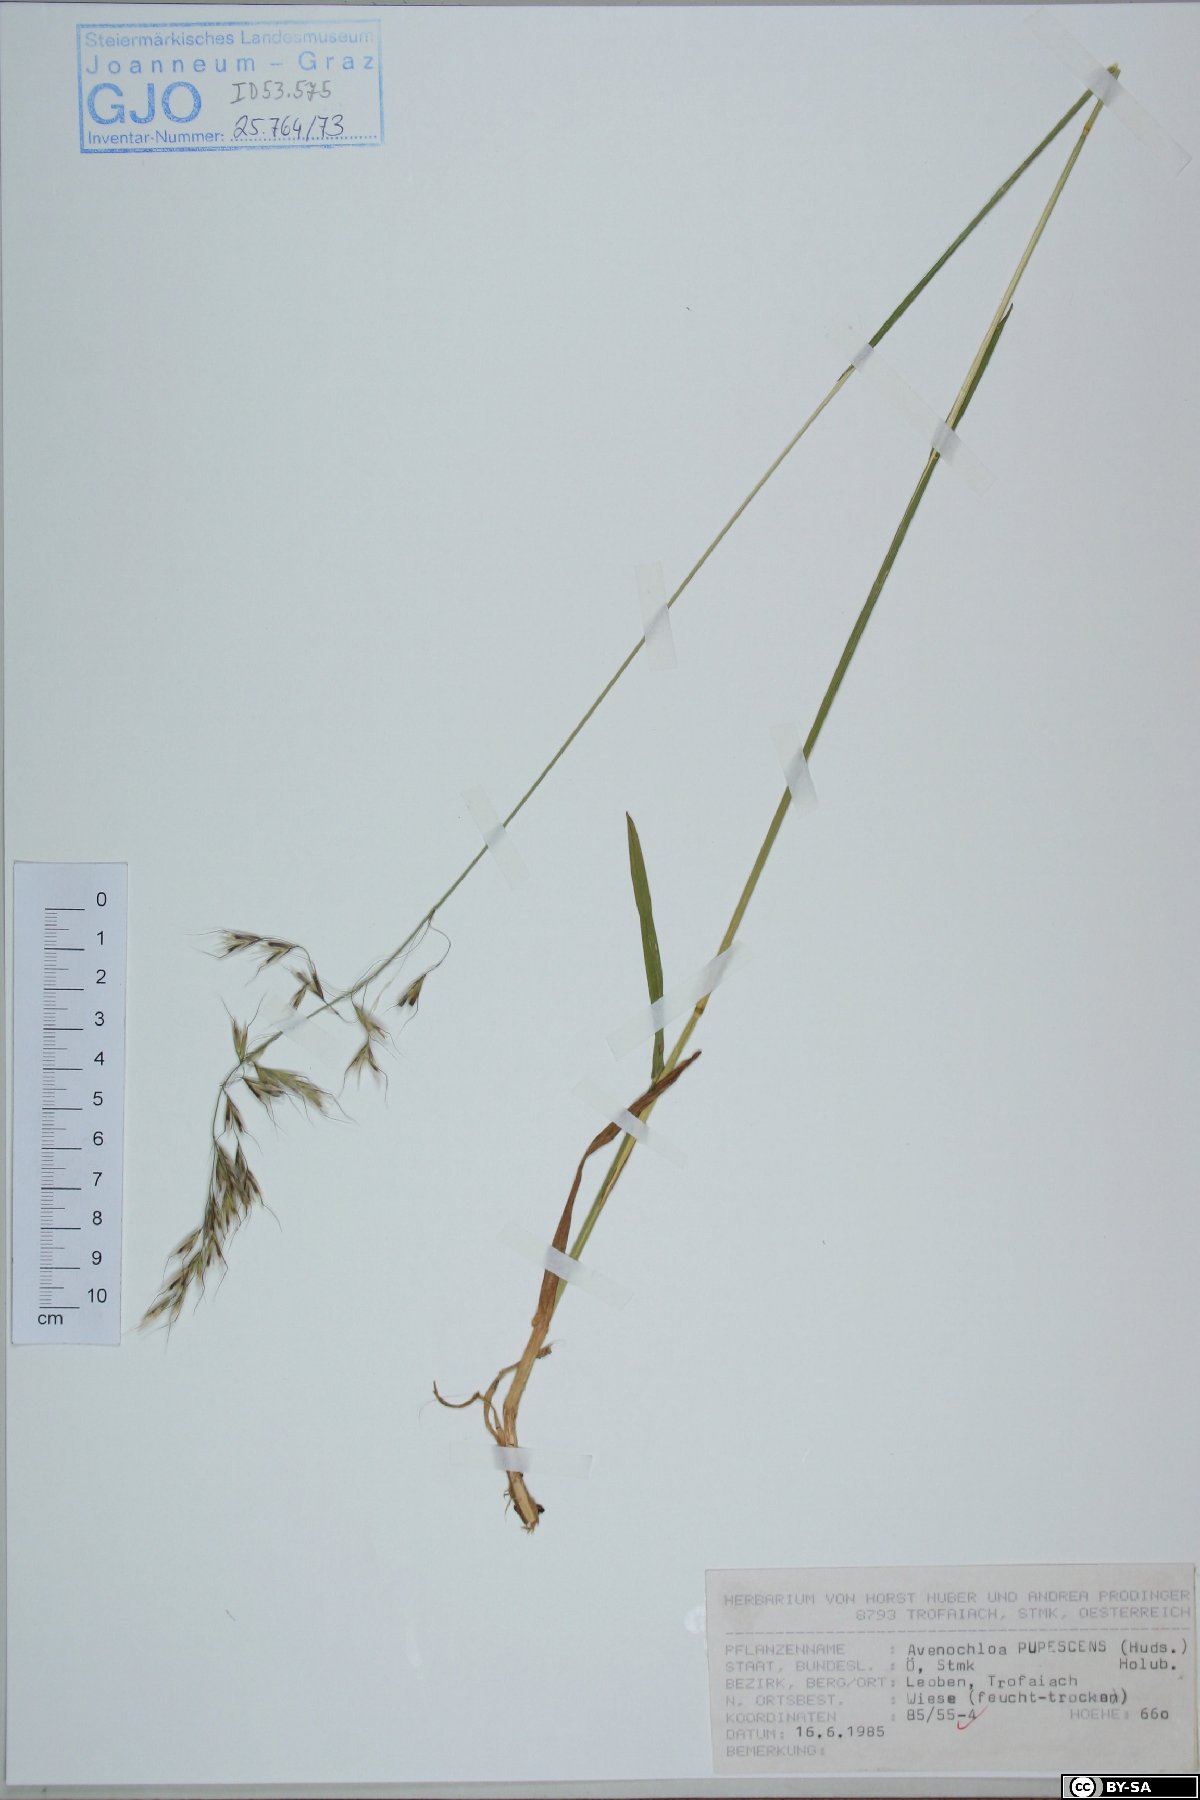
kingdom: Plantae
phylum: Tracheophyta
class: Liliopsida
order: Poales
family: Poaceae
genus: Avenula
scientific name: Avenula pubescens
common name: Downy alpine oatgrass
